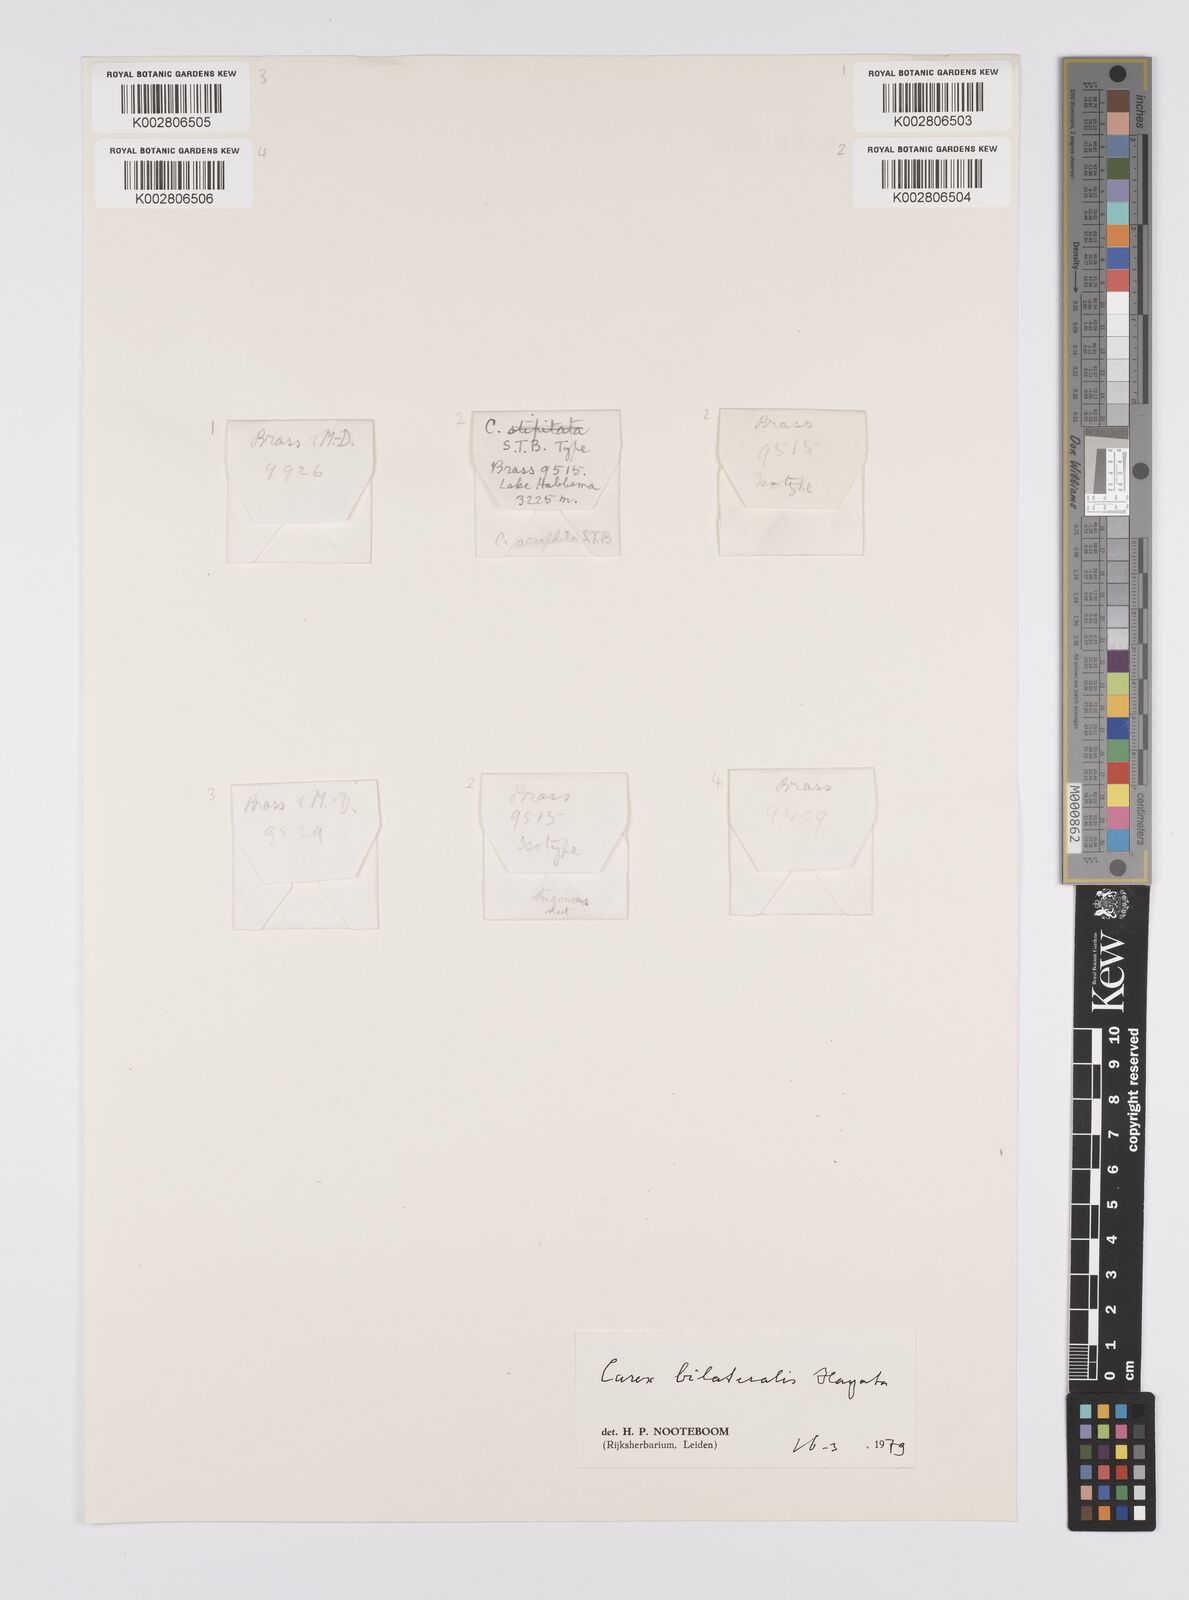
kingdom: Plantae
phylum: Tracheophyta
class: Liliopsida
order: Poales
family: Cyperaceae
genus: Carex
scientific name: Carex bilateralis
